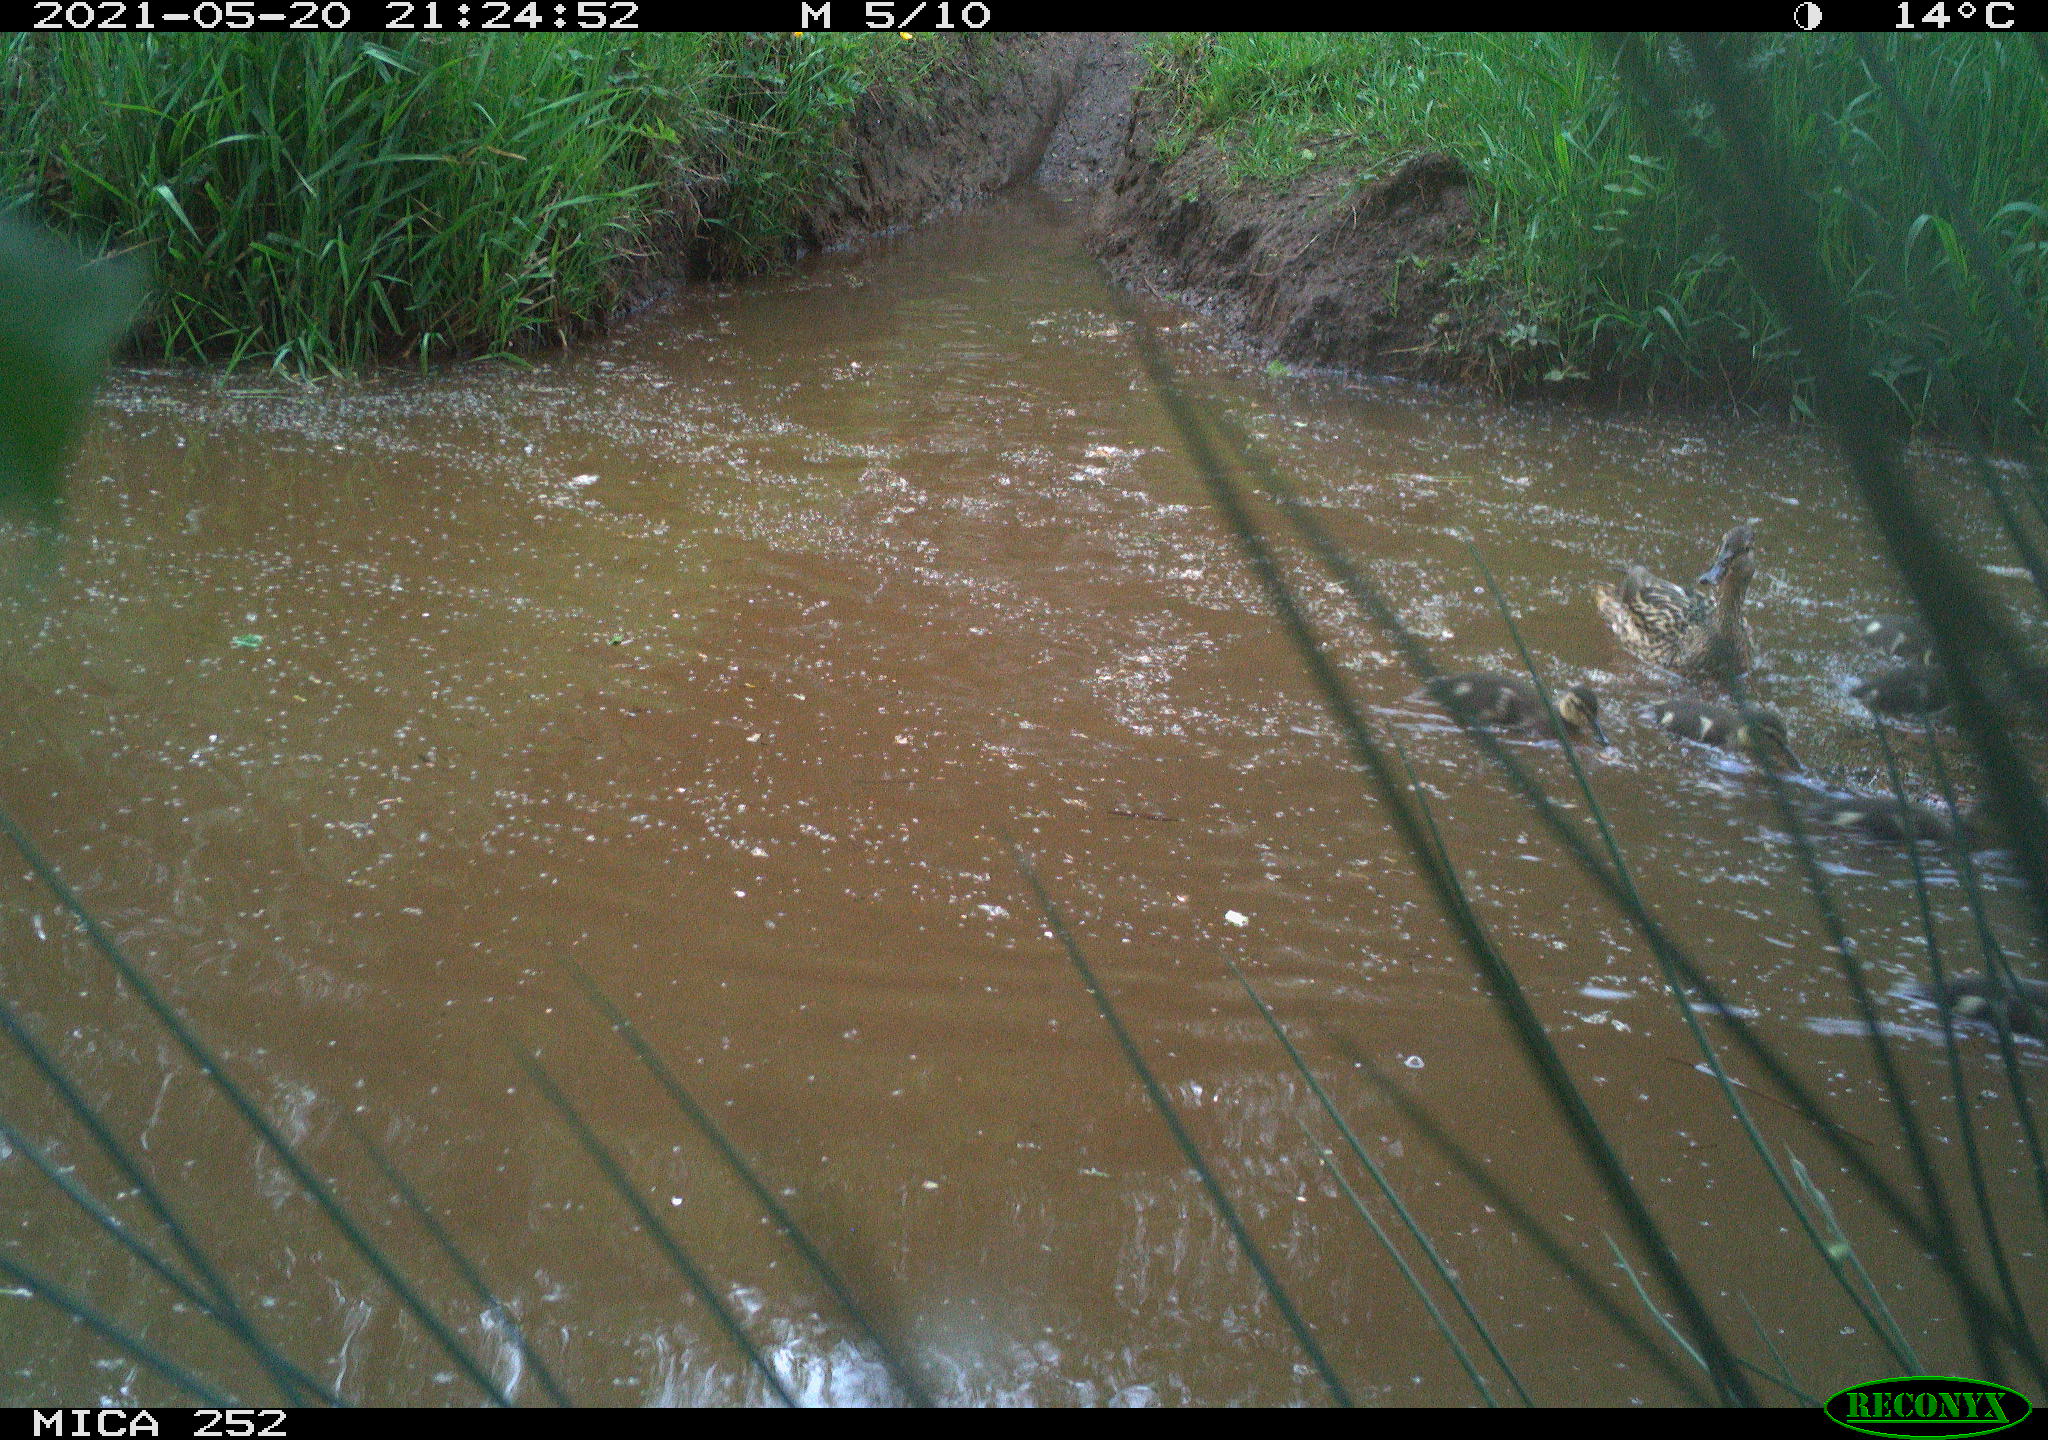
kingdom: Animalia
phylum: Chordata
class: Aves
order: Anseriformes
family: Anatidae
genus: Anas
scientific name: Anas platyrhynchos
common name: Mallard
